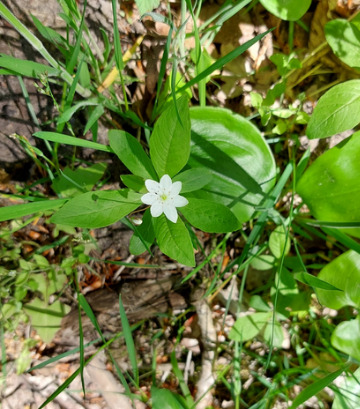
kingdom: Plantae
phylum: Tracheophyta
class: Magnoliopsida
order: Ericales
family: Primulaceae
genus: Lysimachia
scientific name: Lysimachia europaea
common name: Skovstjerne
